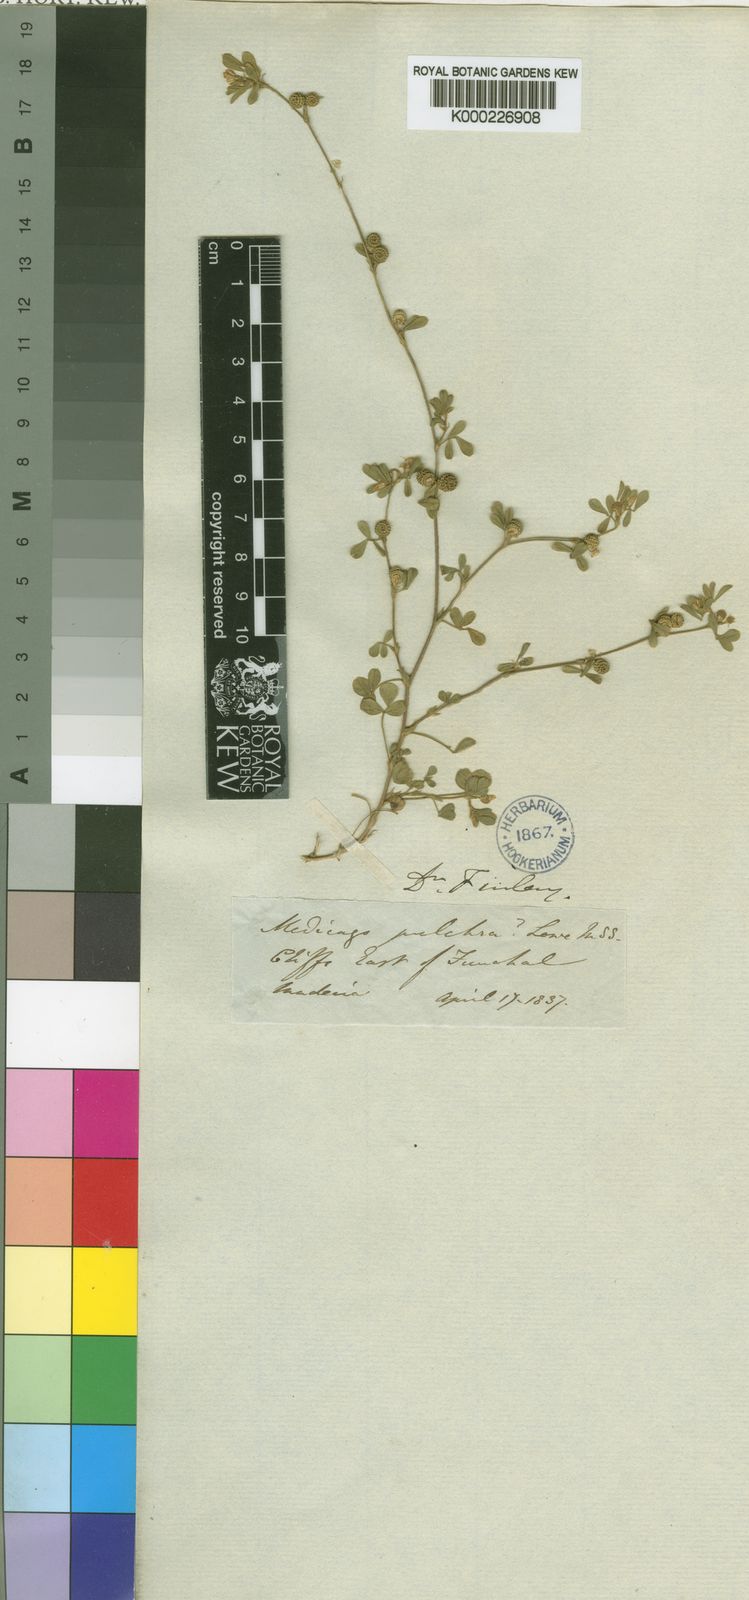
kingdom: Plantae
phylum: Tracheophyta
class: Magnoliopsida
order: Fabales
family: Fabaceae
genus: Medicago
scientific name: Medicago minima
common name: Little bur-clover
